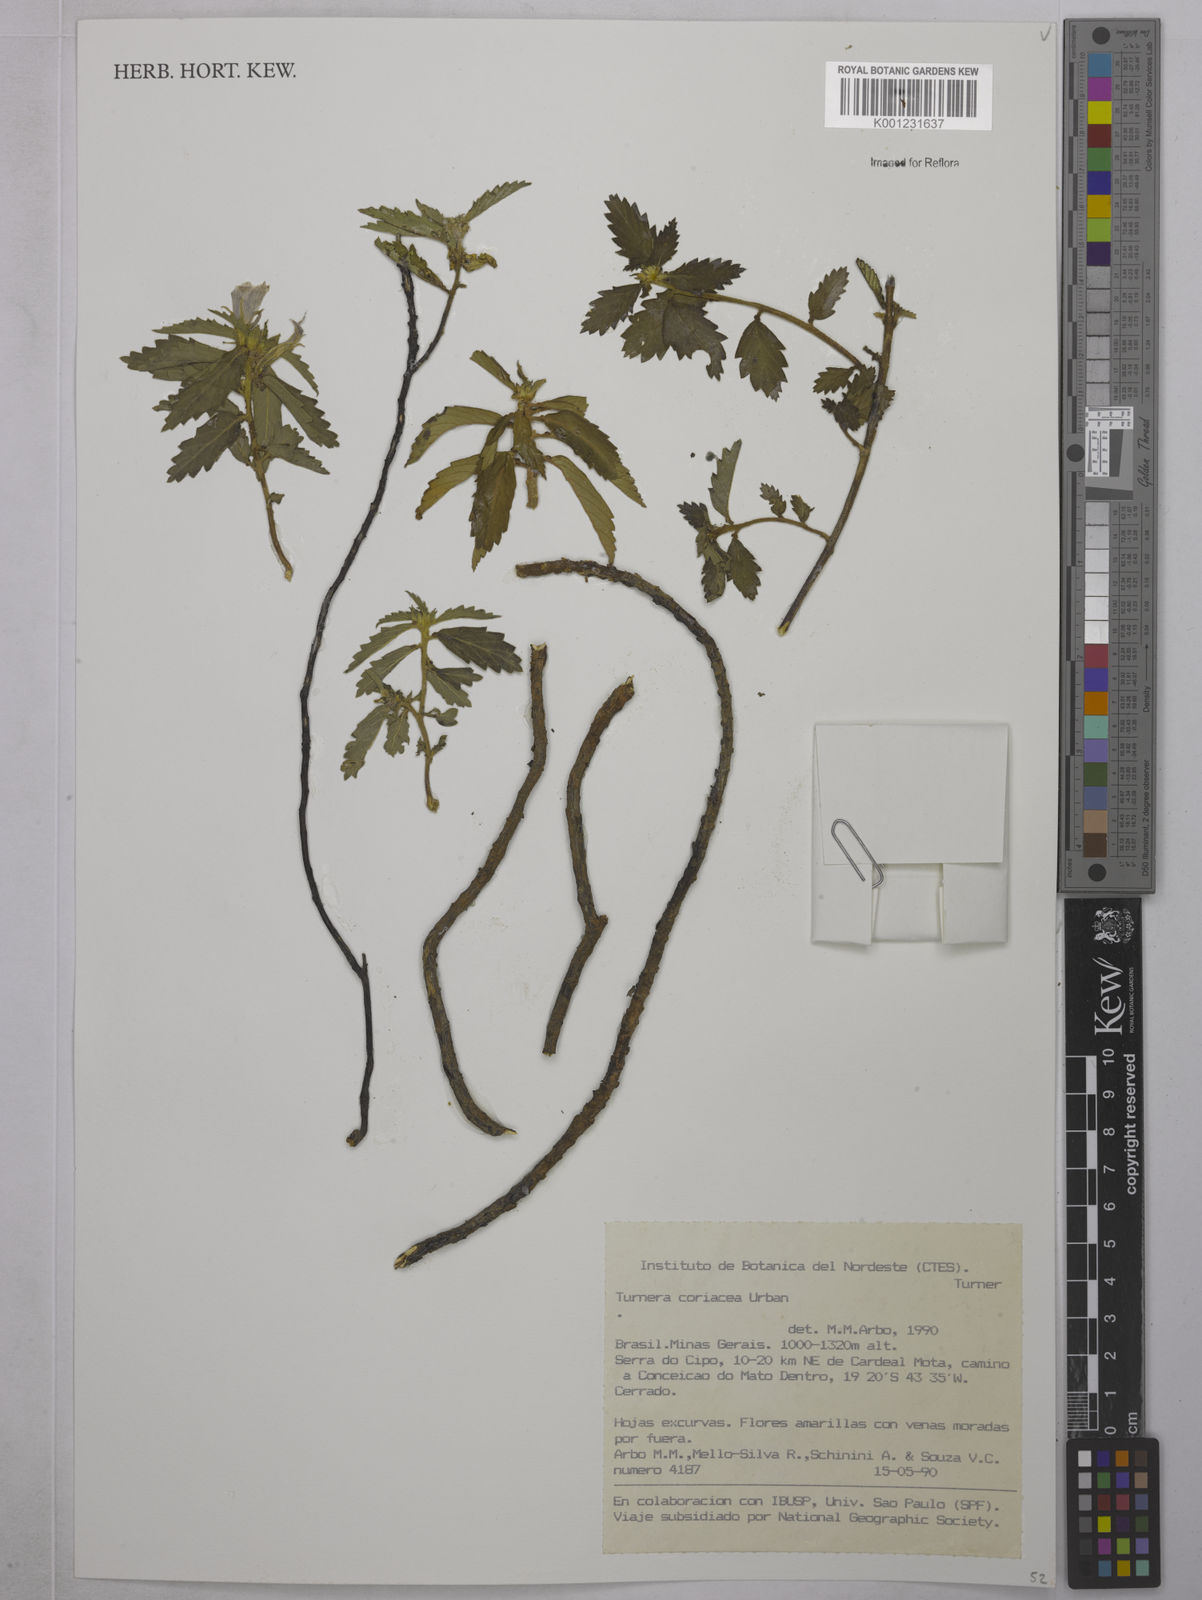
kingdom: Plantae
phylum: Tracheophyta
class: Magnoliopsida
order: Malpighiales
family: Turneraceae
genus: Turnera
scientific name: Turnera coriacea
